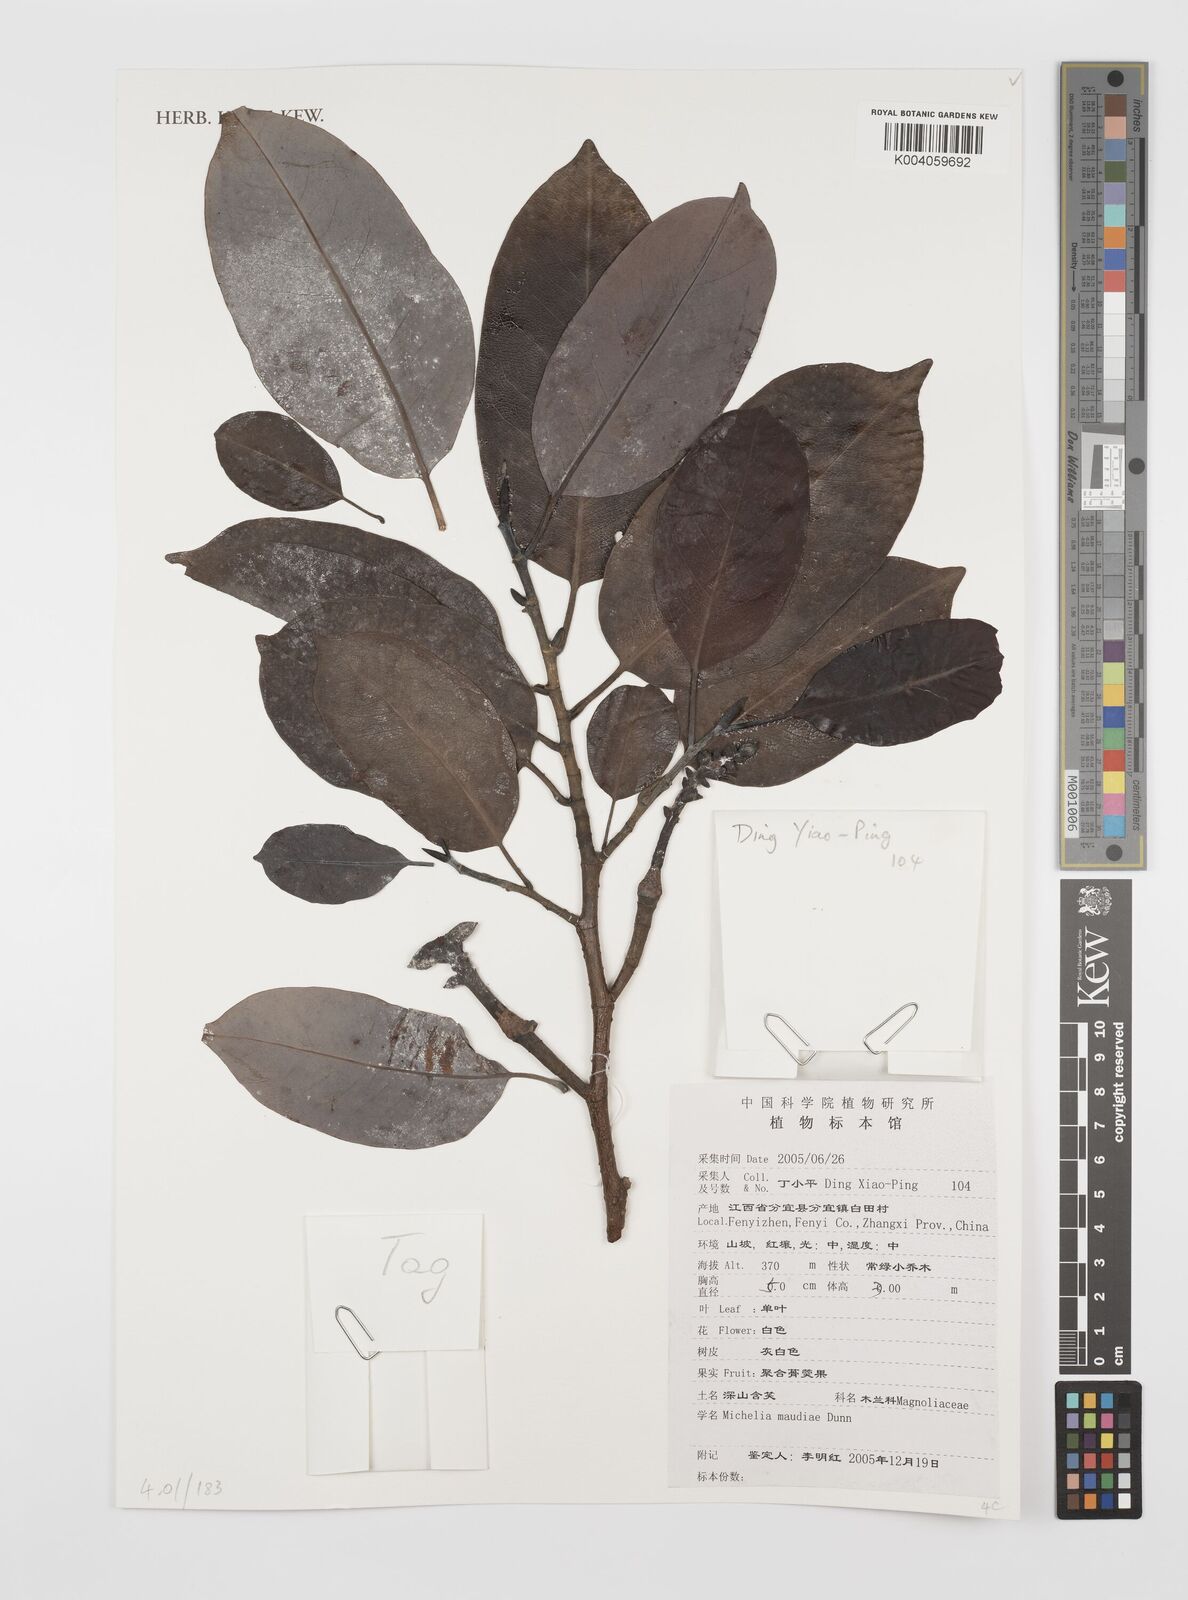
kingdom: Plantae
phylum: Tracheophyta
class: Magnoliopsida
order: Magnoliales
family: Magnoliaceae
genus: Magnolia
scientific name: Magnolia maudiae
